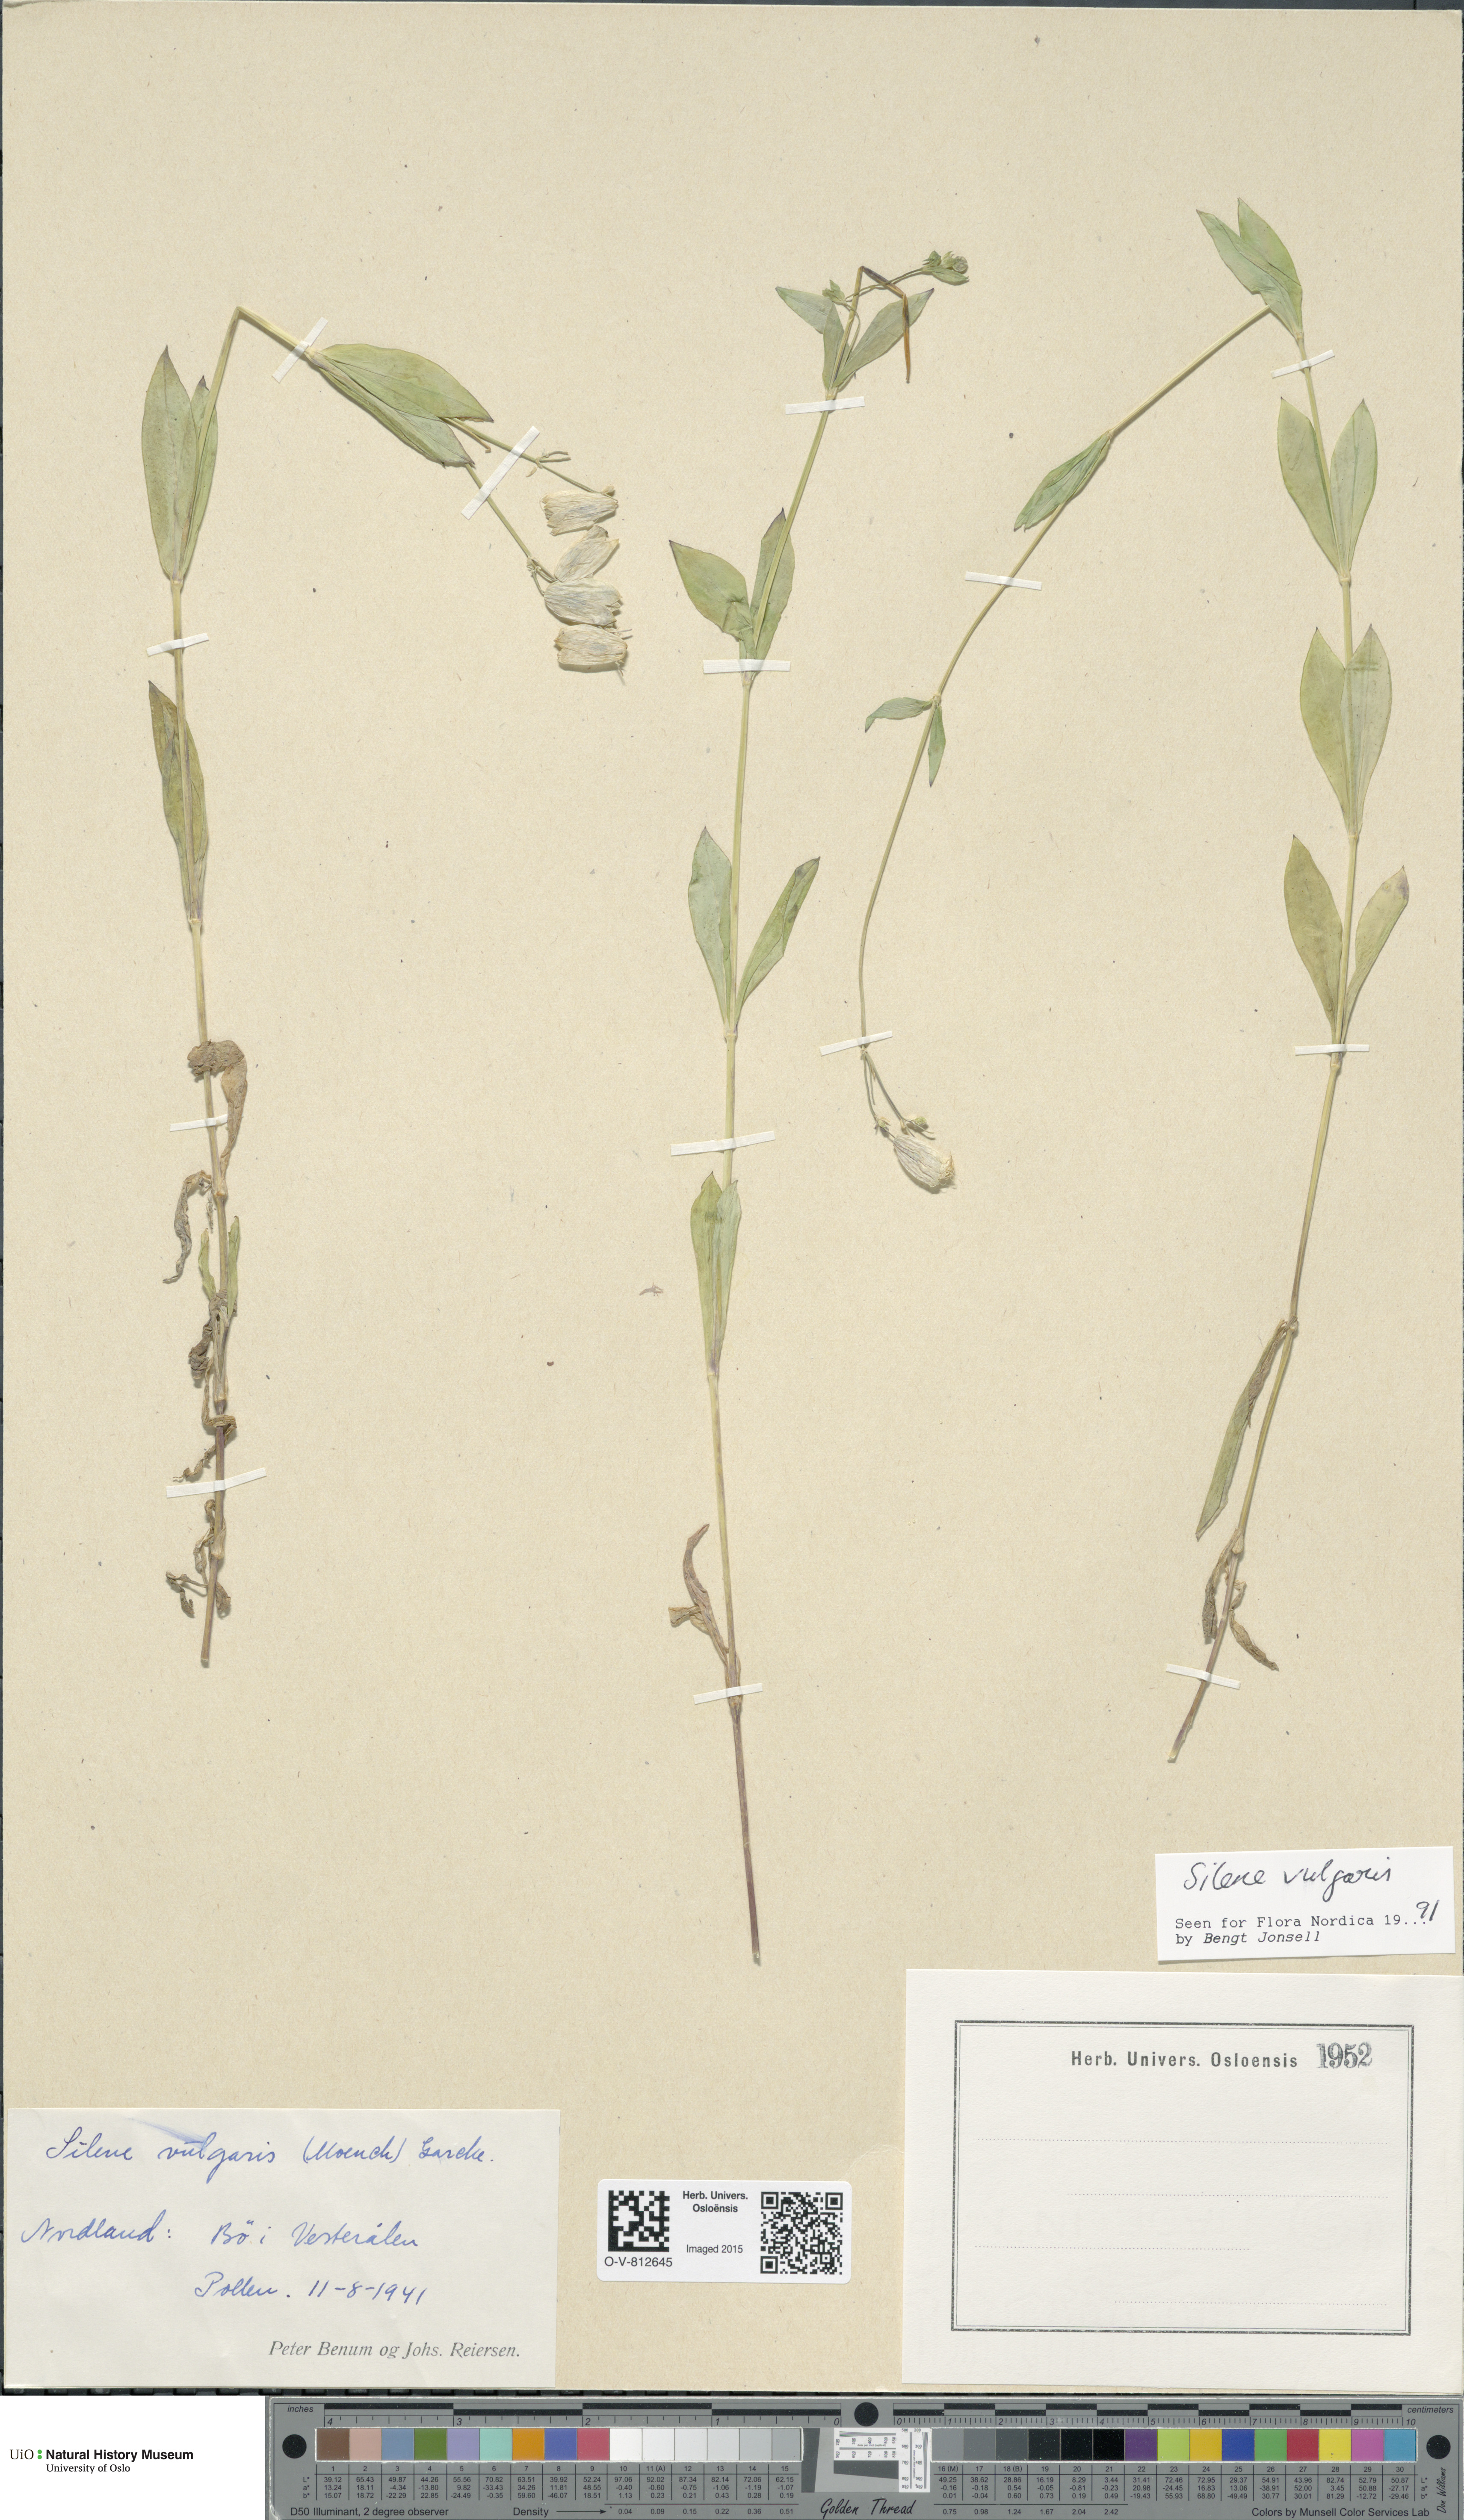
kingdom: Plantae
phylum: Tracheophyta
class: Magnoliopsida
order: Caryophyllales
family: Caryophyllaceae
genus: Silene
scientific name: Silene vulgaris
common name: Bladder campion
